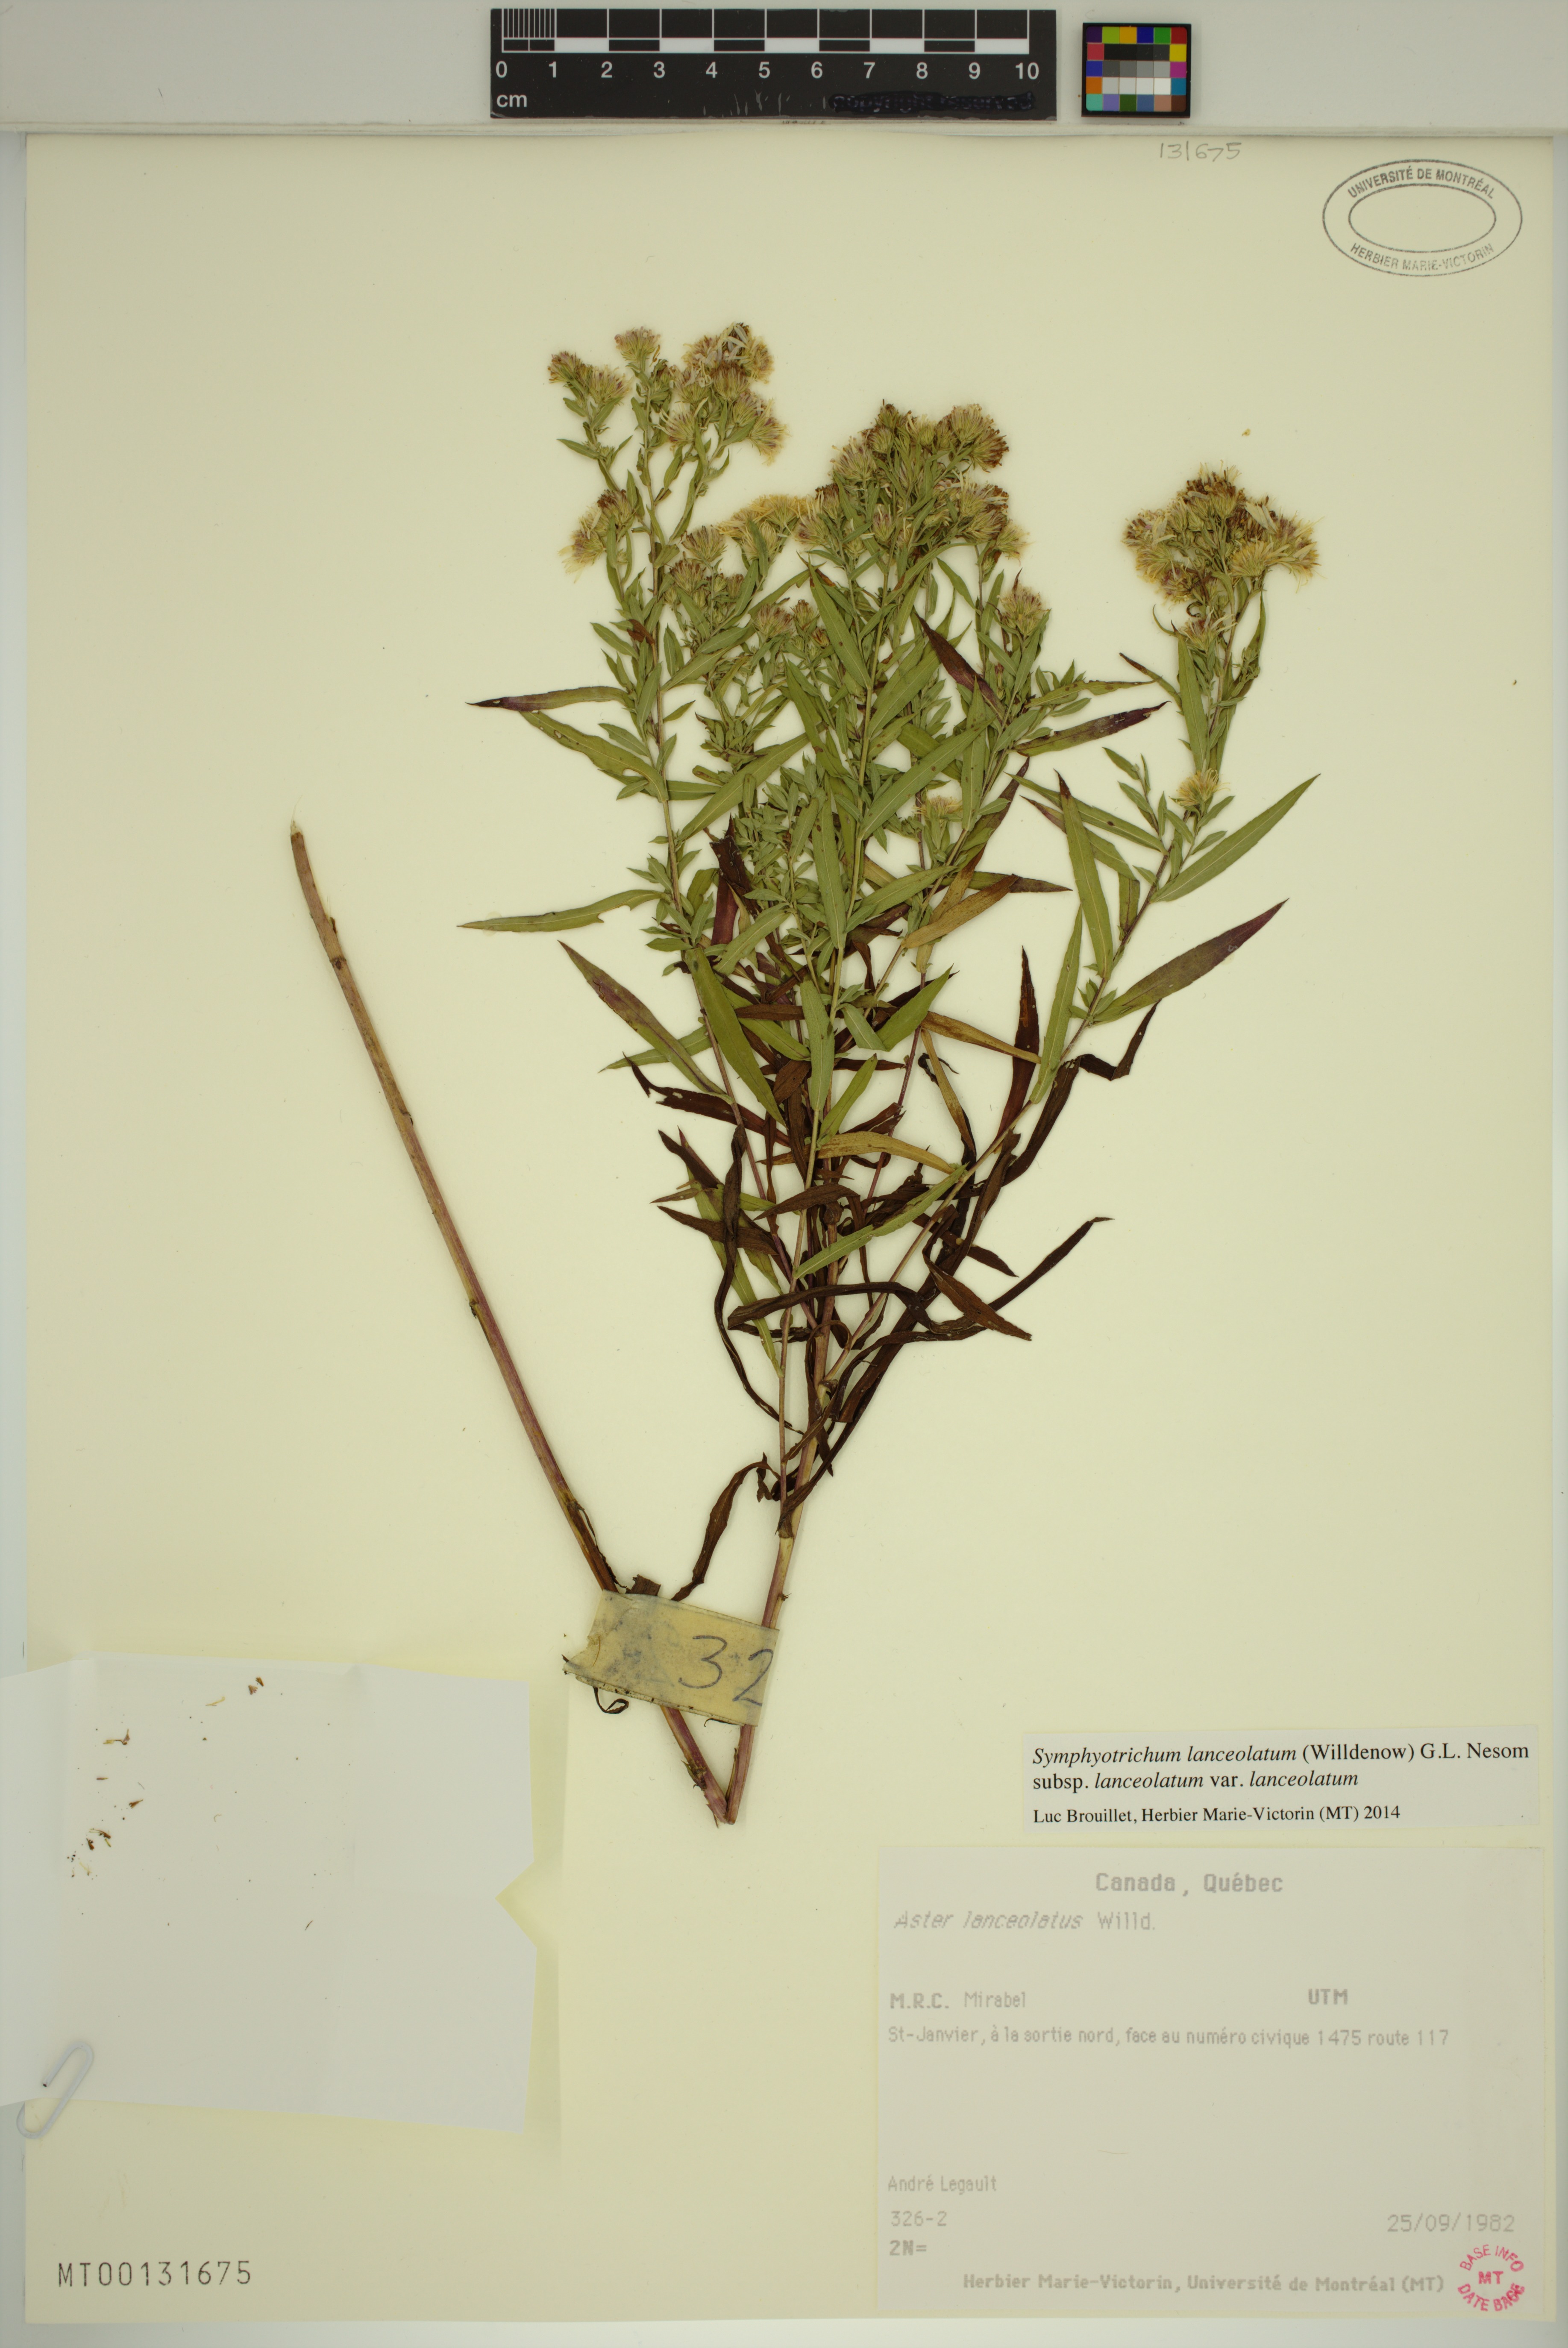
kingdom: Plantae
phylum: Tracheophyta
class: Magnoliopsida
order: Asterales
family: Asteraceae
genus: Symphyotrichum
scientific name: Symphyotrichum lanceolatum
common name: Panicled aster
